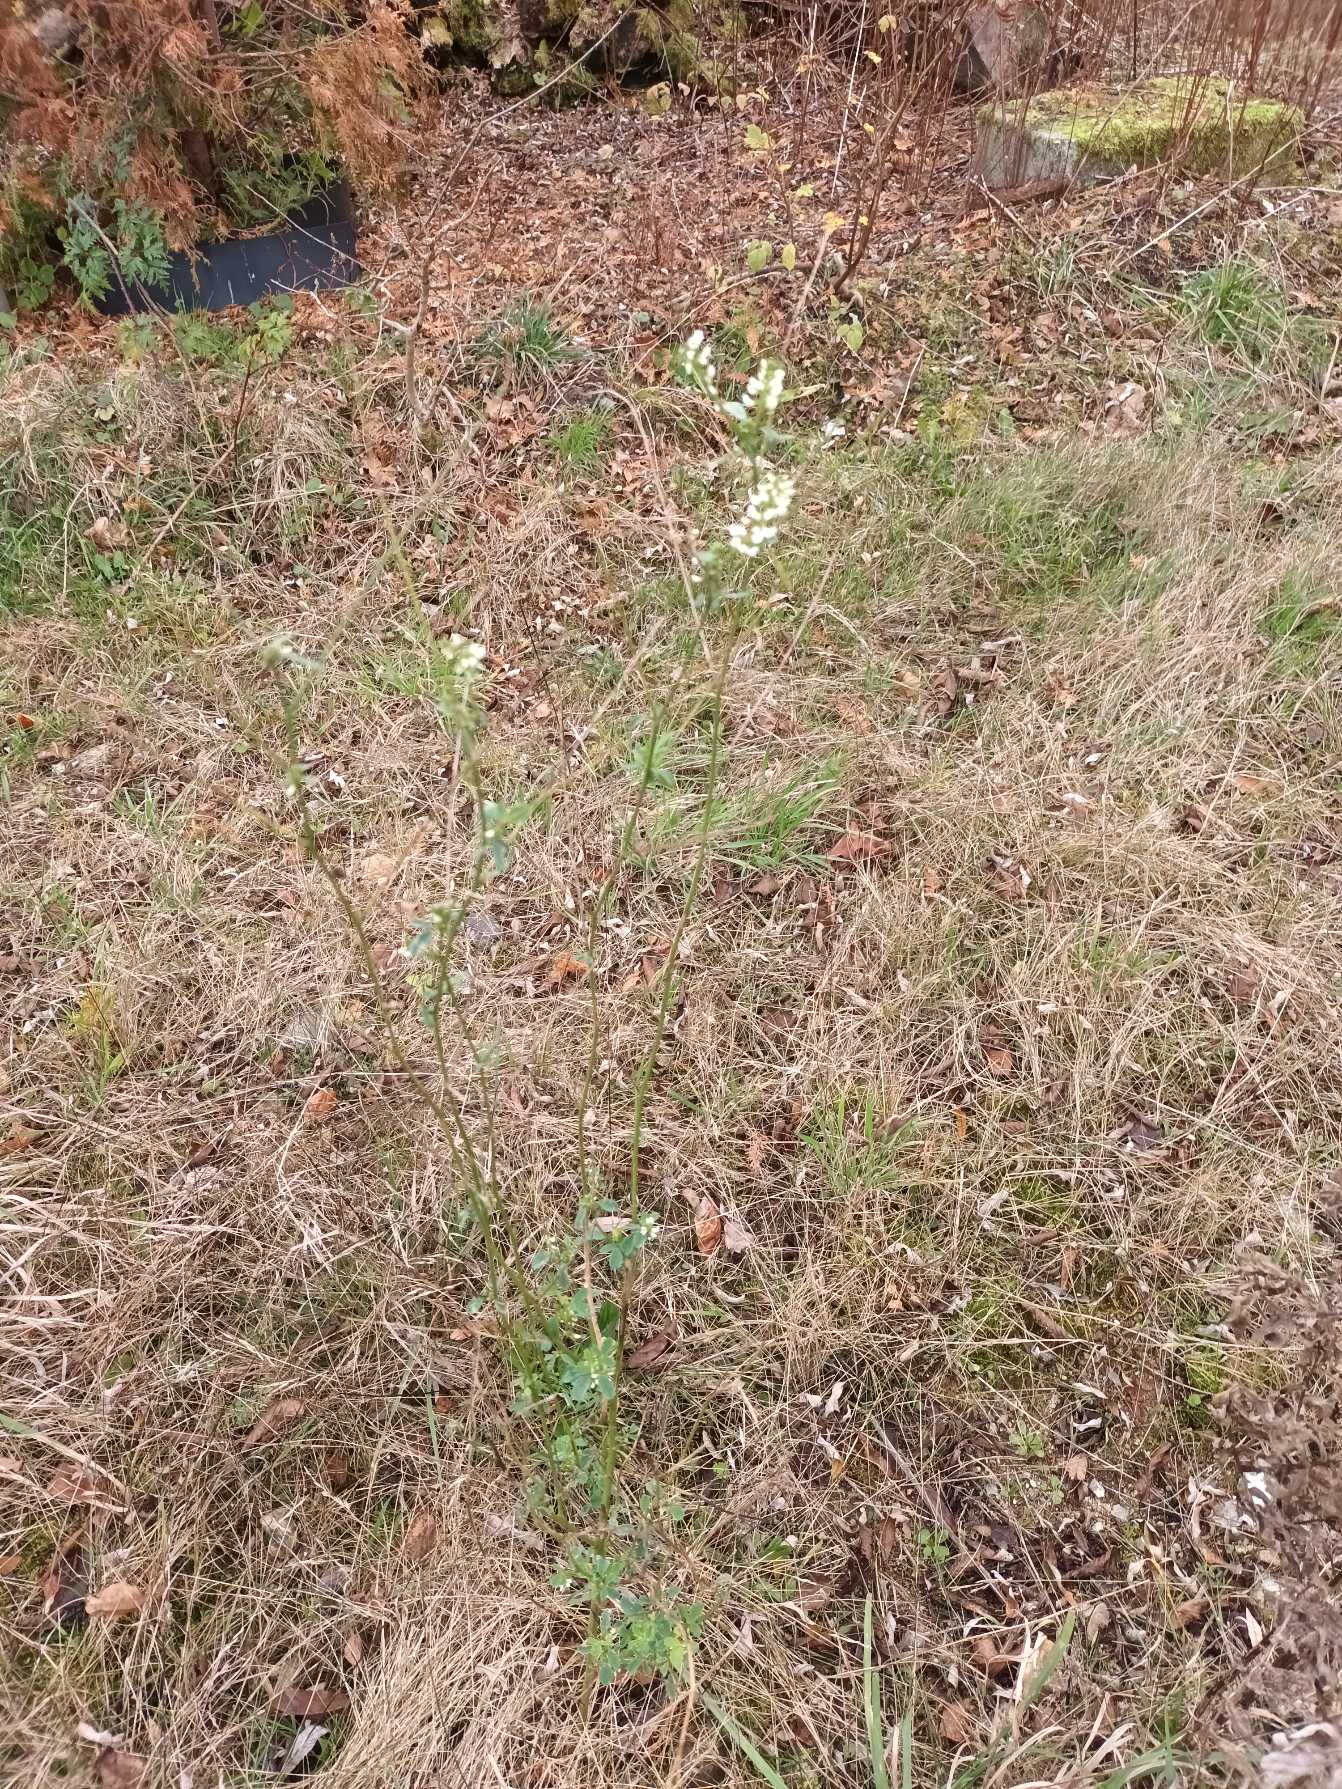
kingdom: Plantae
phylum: Tracheophyta
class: Magnoliopsida
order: Fabales
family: Fabaceae
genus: Melilotus
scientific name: Melilotus albus
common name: Hvid stenkløver
